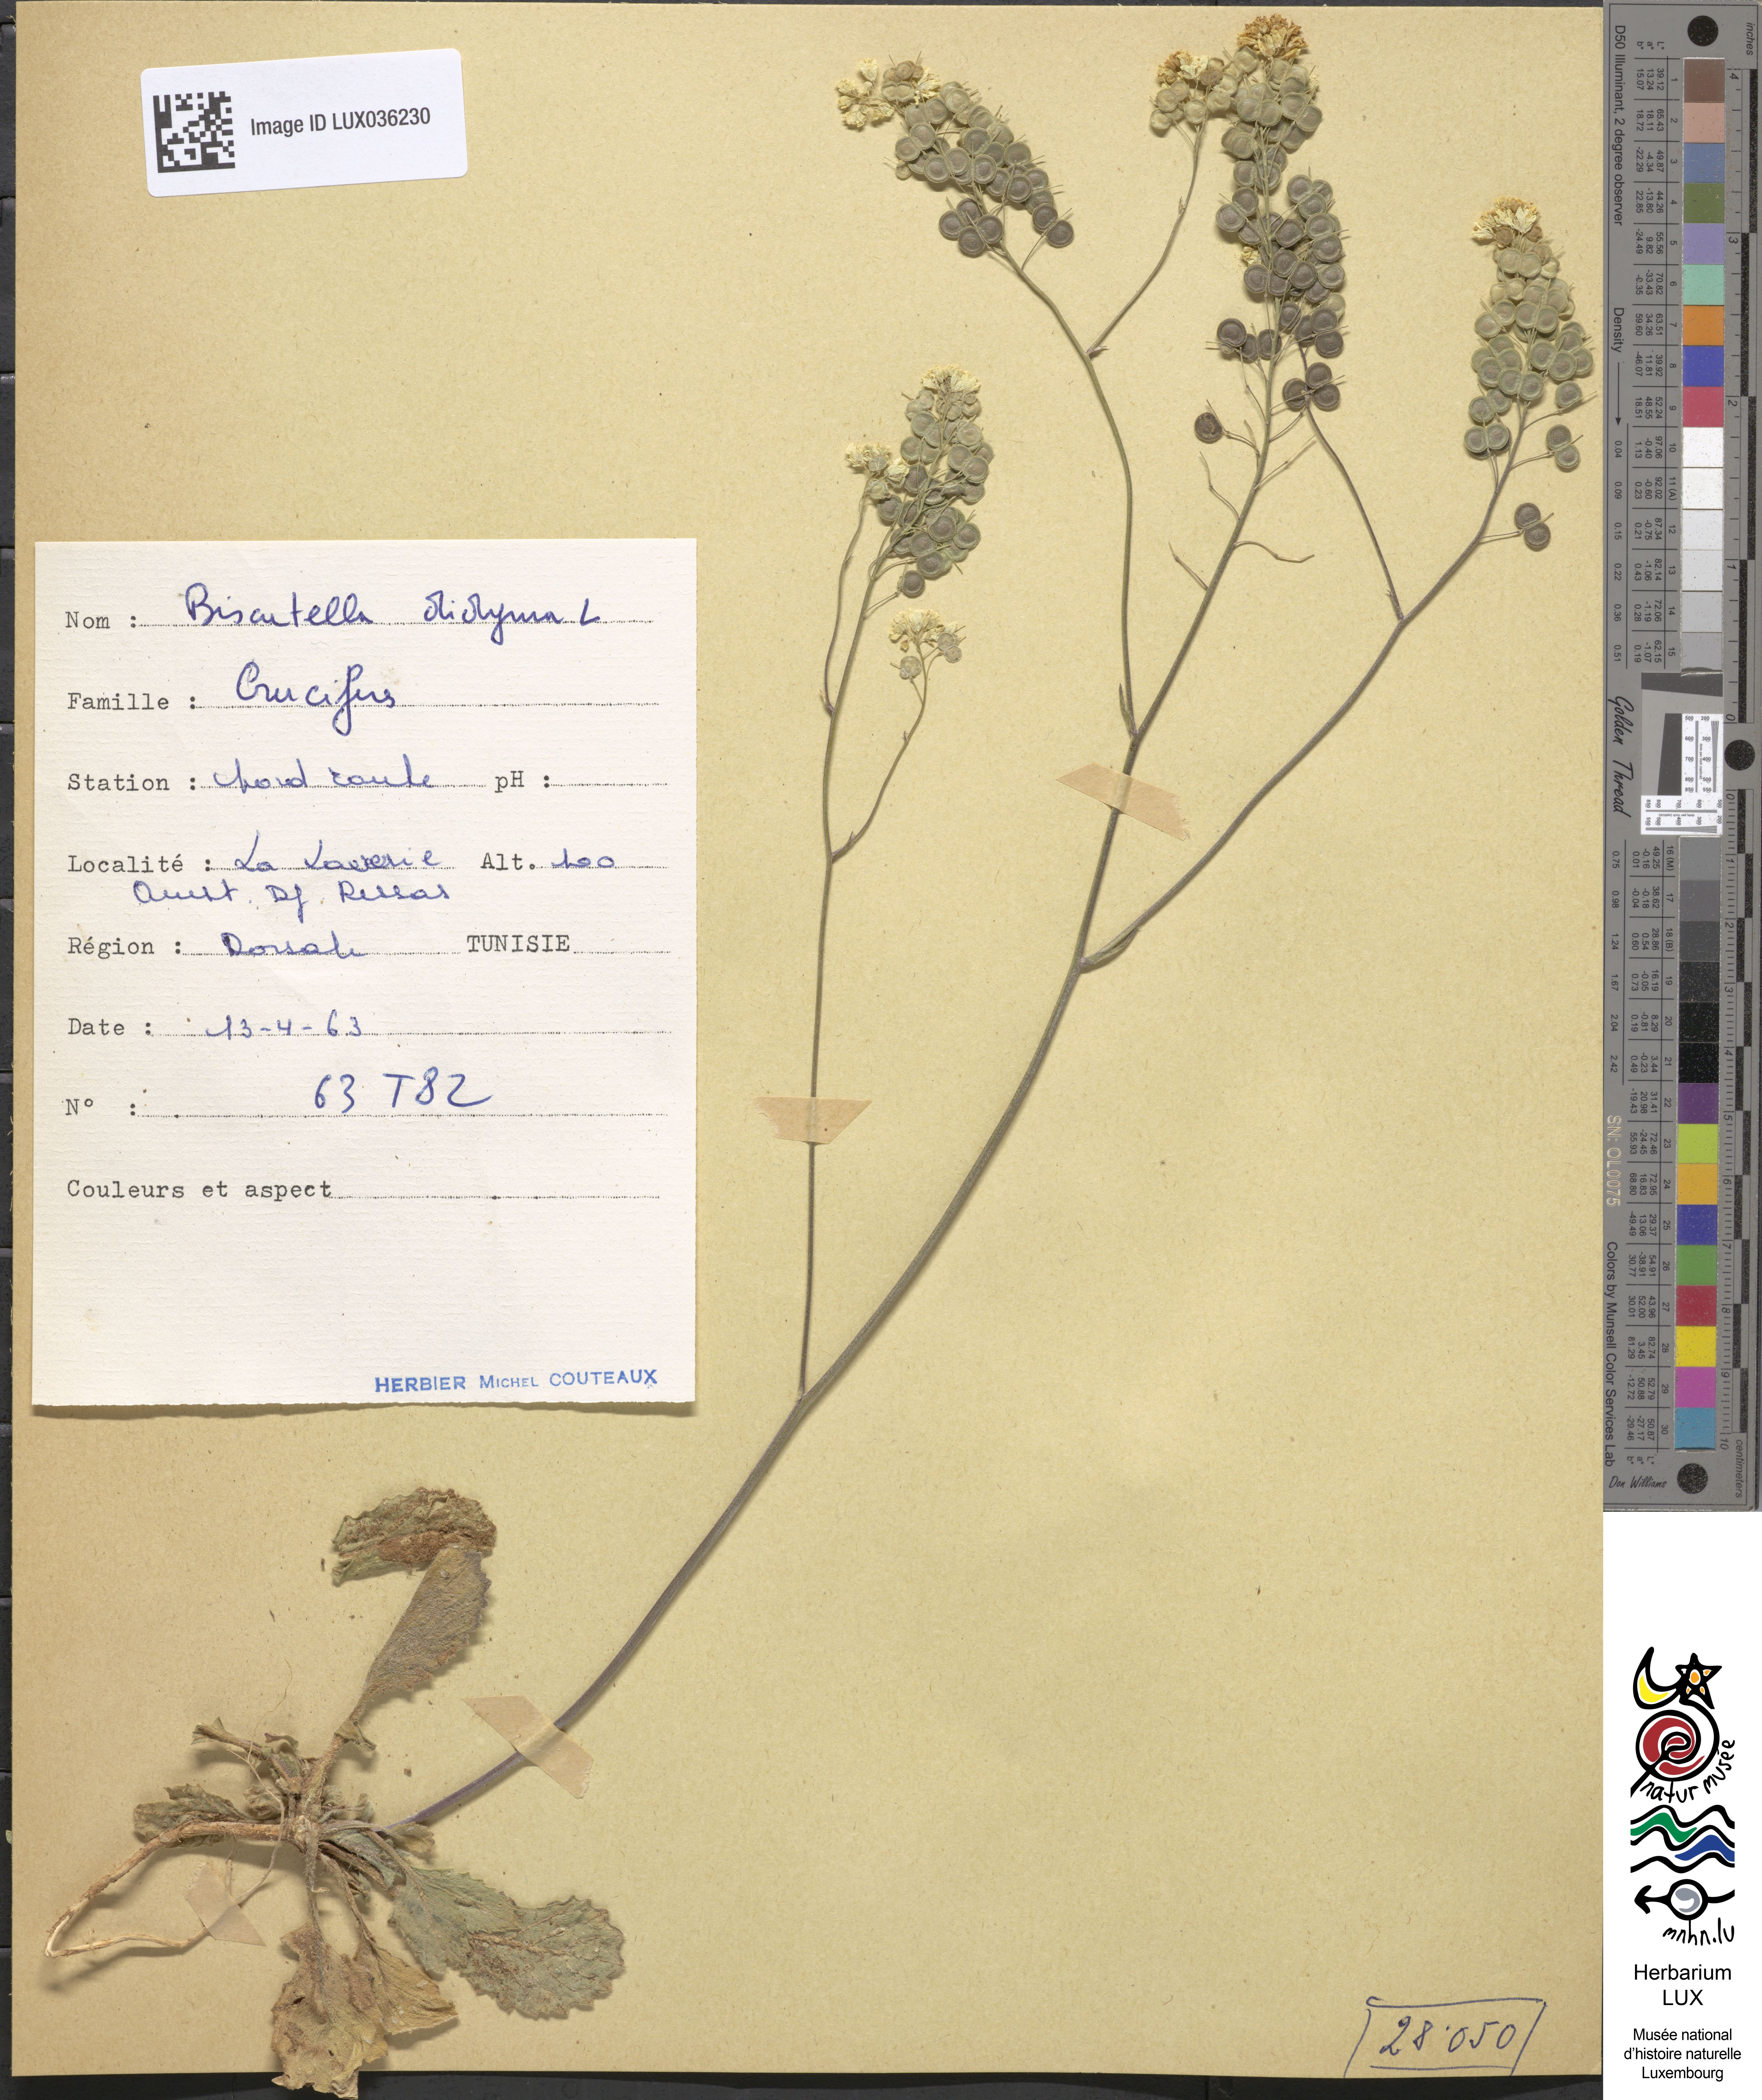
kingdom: Plantae
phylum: Tracheophyta
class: Magnoliopsida
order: Brassicales
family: Brassicaceae
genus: Biscutella
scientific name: Biscutella didyma
